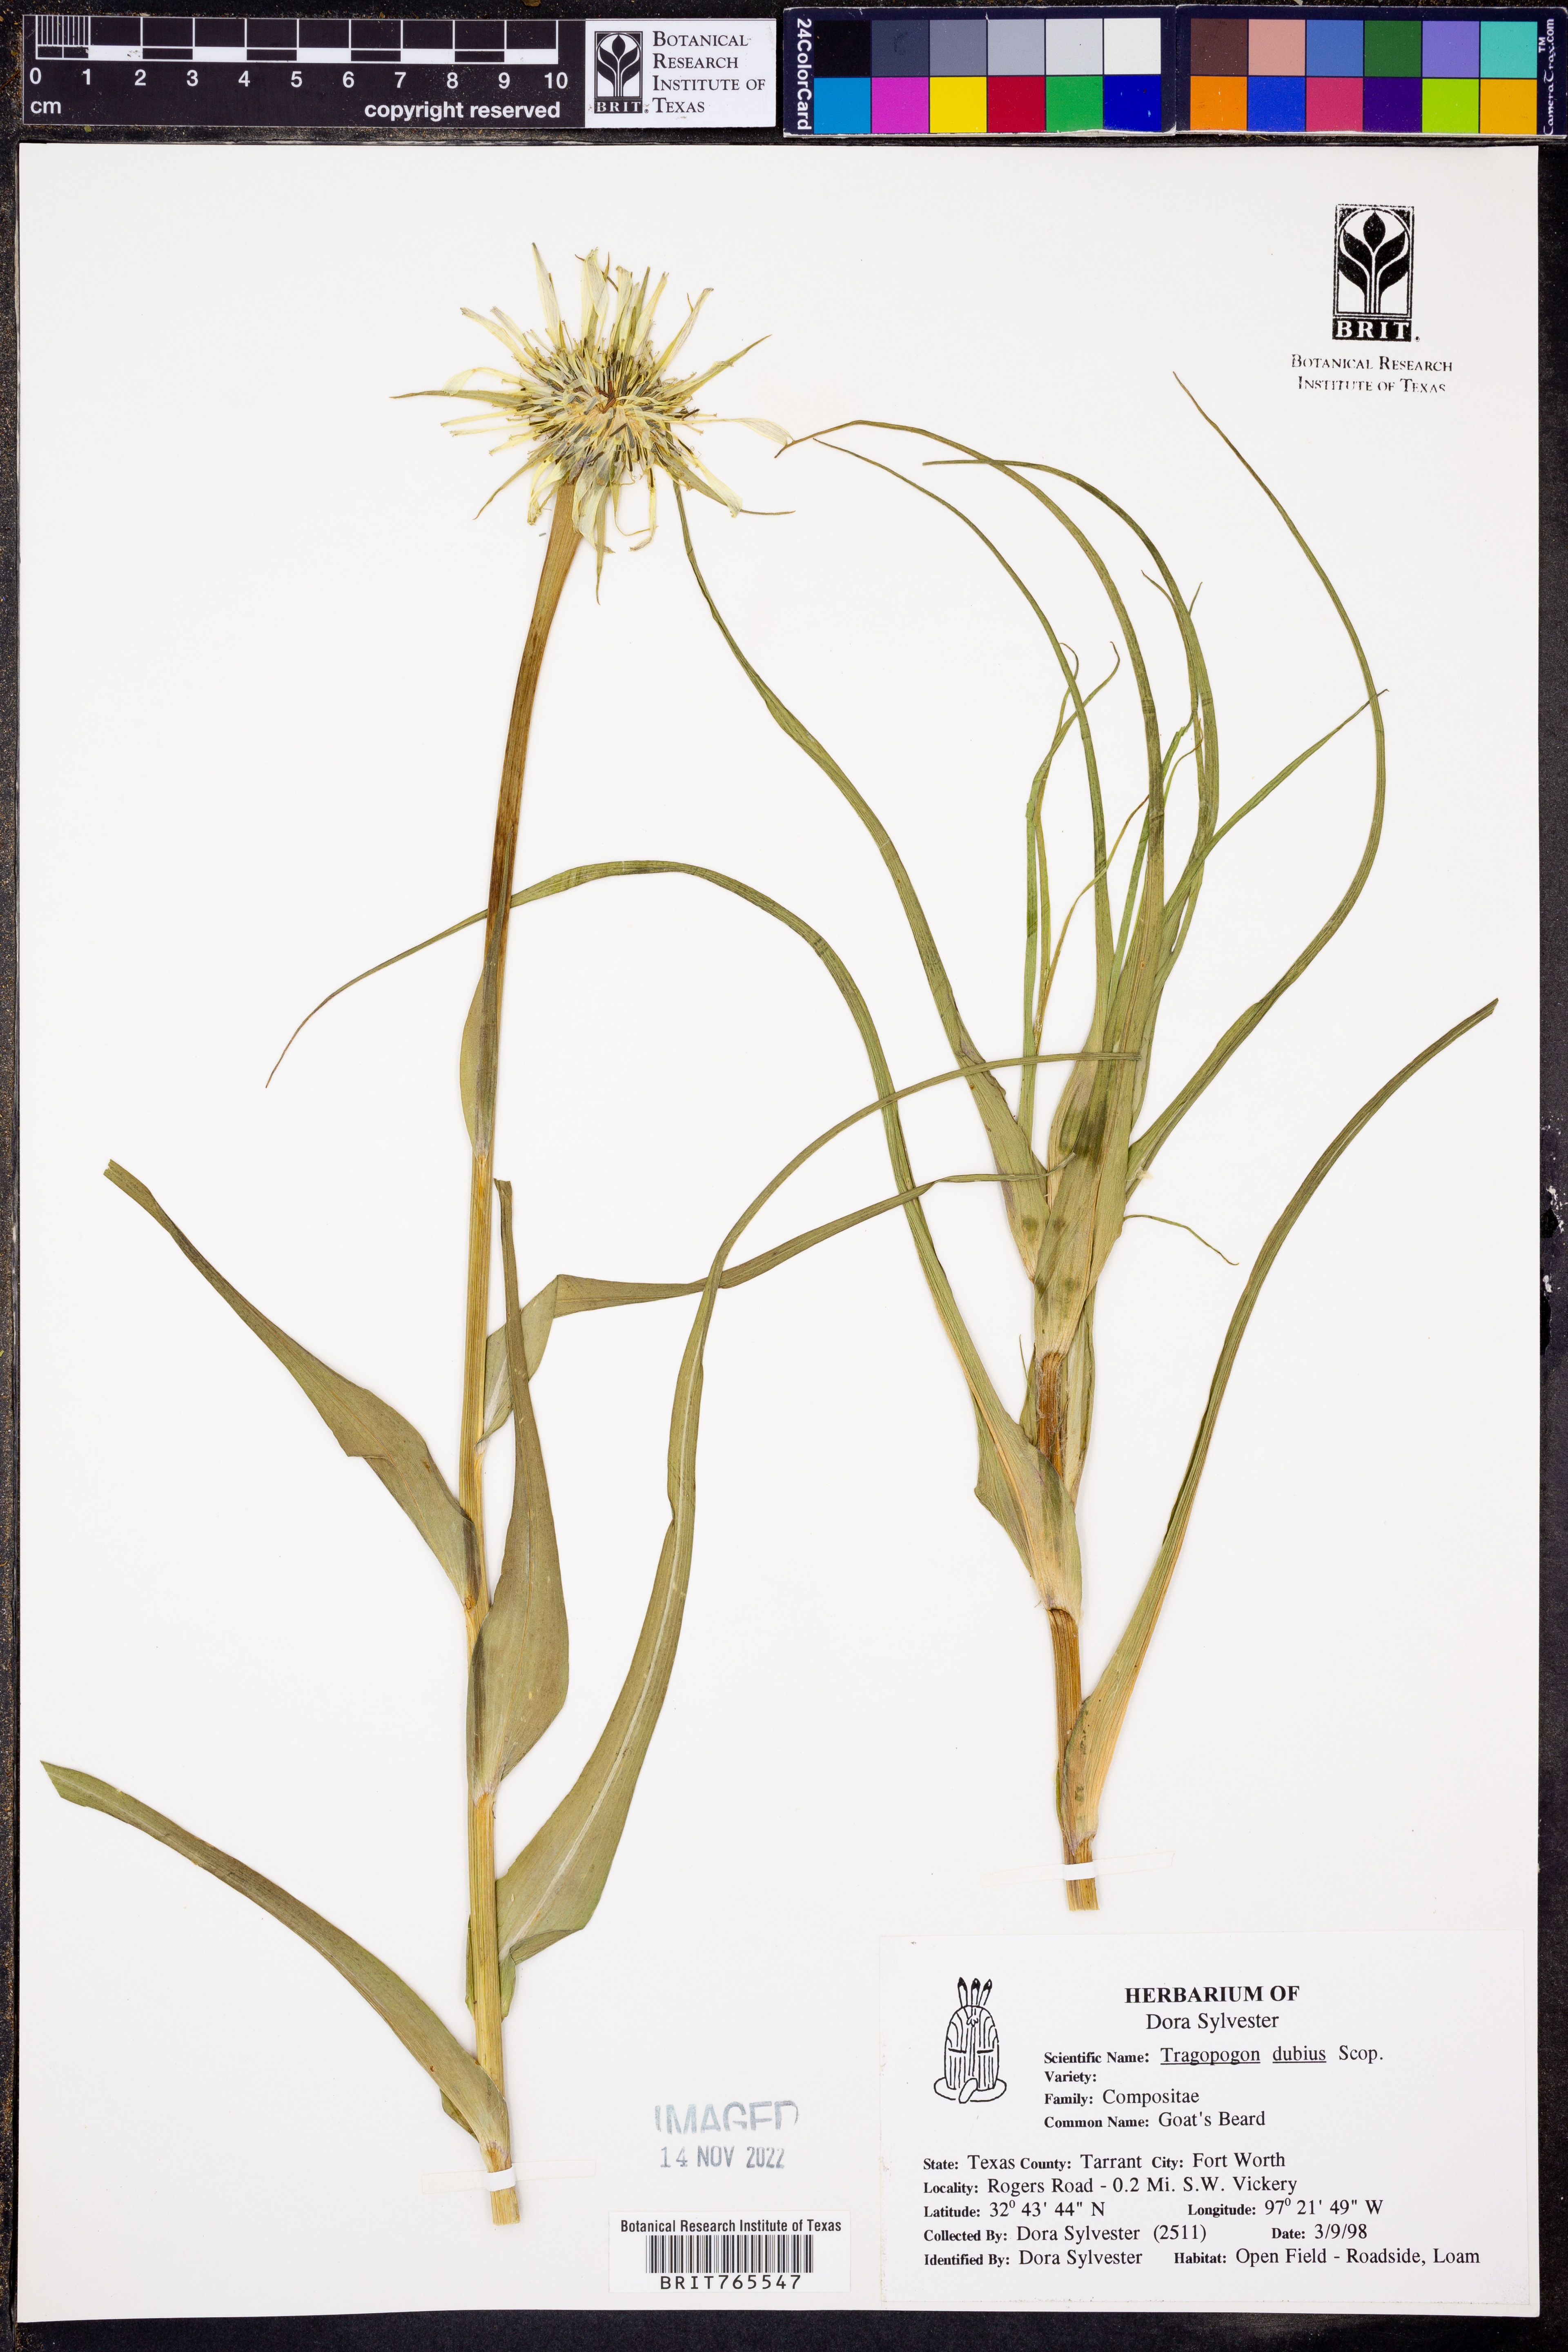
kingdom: Plantae
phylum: Tracheophyta
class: Magnoliopsida
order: Asterales
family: Asteraceae
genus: Tragopogon
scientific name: Tragopogon dubius
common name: Yellow salsify
